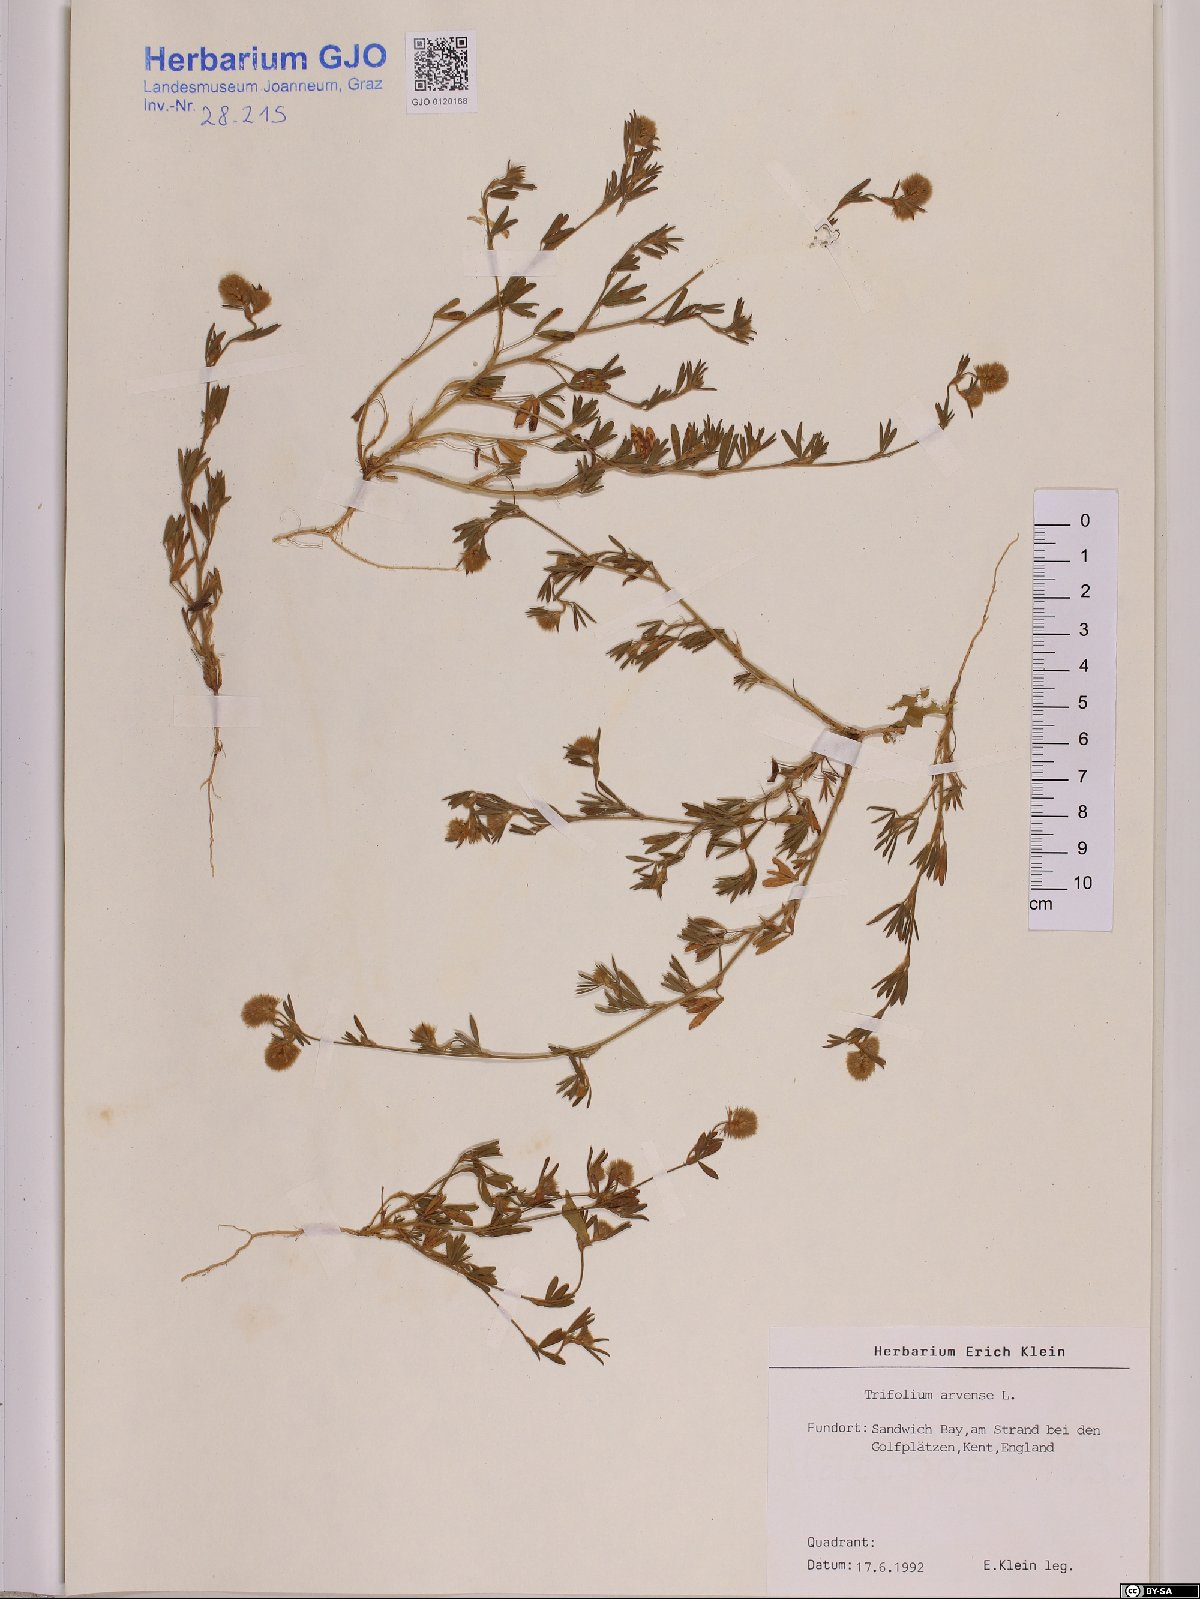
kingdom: Plantae
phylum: Tracheophyta
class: Magnoliopsida
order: Fabales
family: Fabaceae
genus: Trifolium
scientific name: Trifolium arvense
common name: Hare's-foot clover
